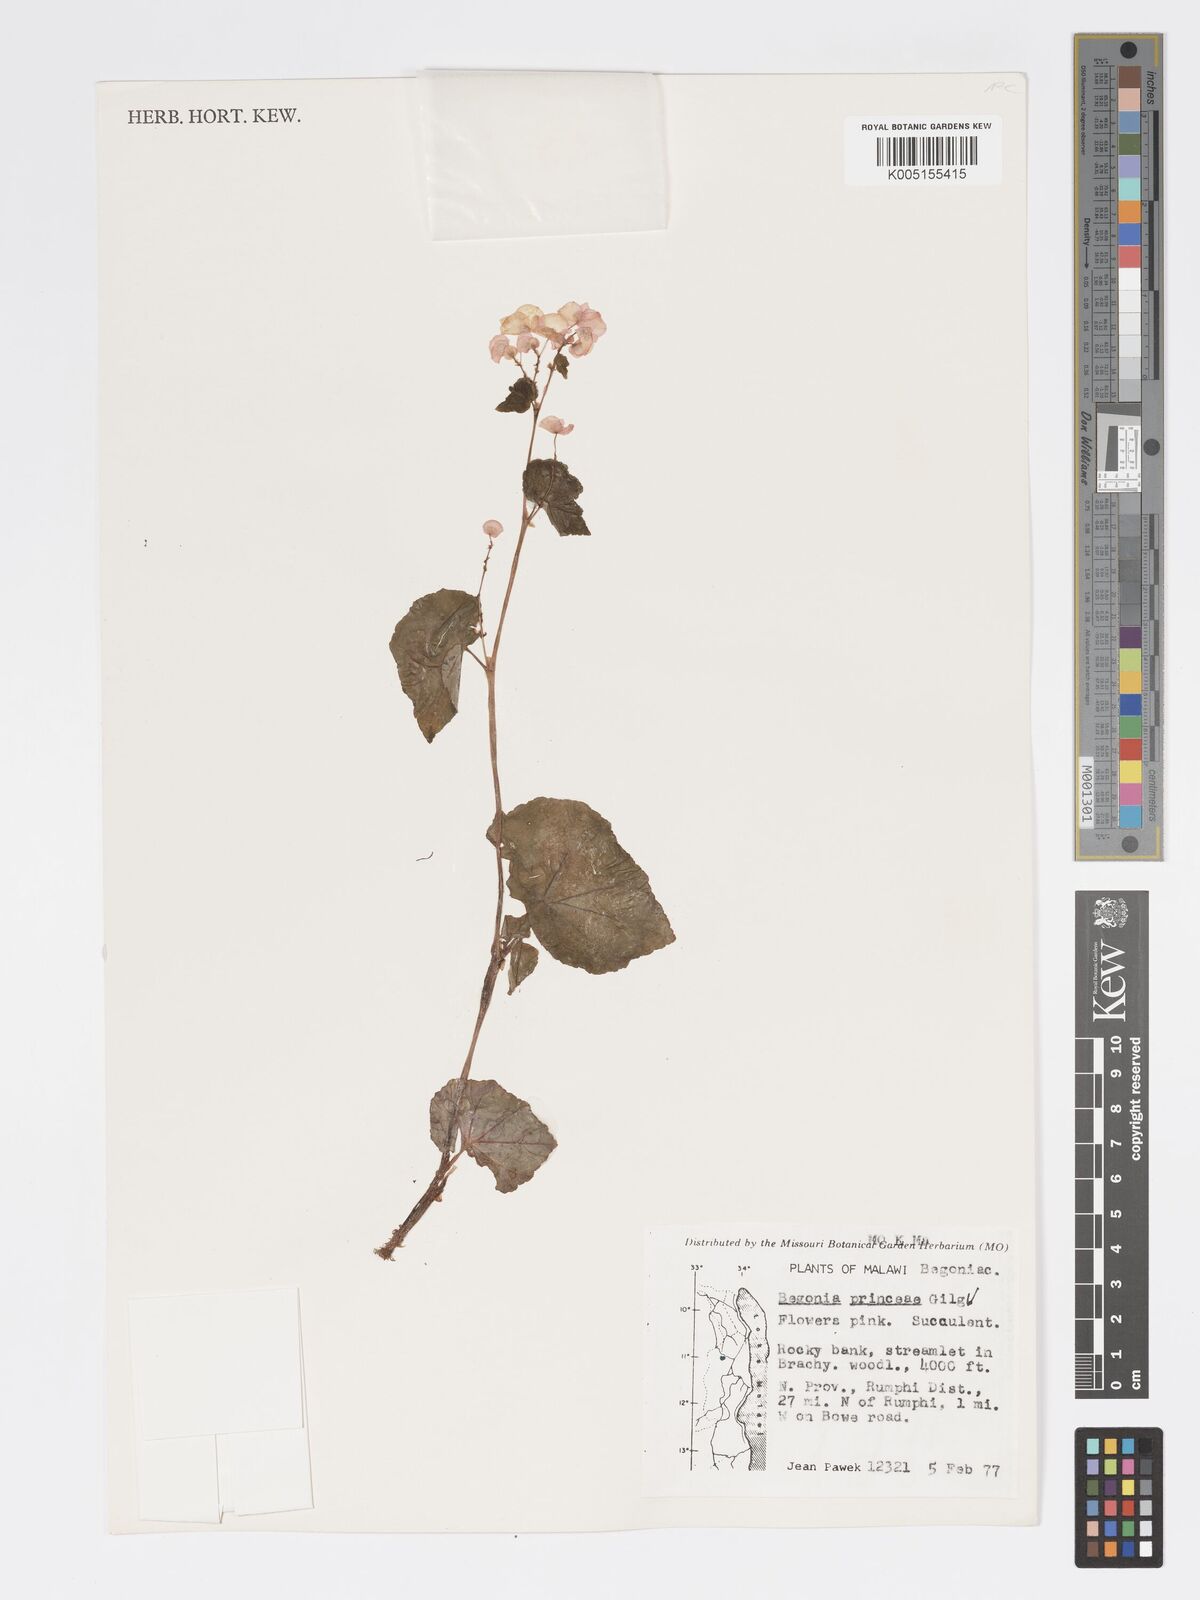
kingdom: Plantae
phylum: Tracheophyta
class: Magnoliopsida
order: Cucurbitales
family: Begoniaceae
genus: Begonia
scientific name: Begonia princeae
